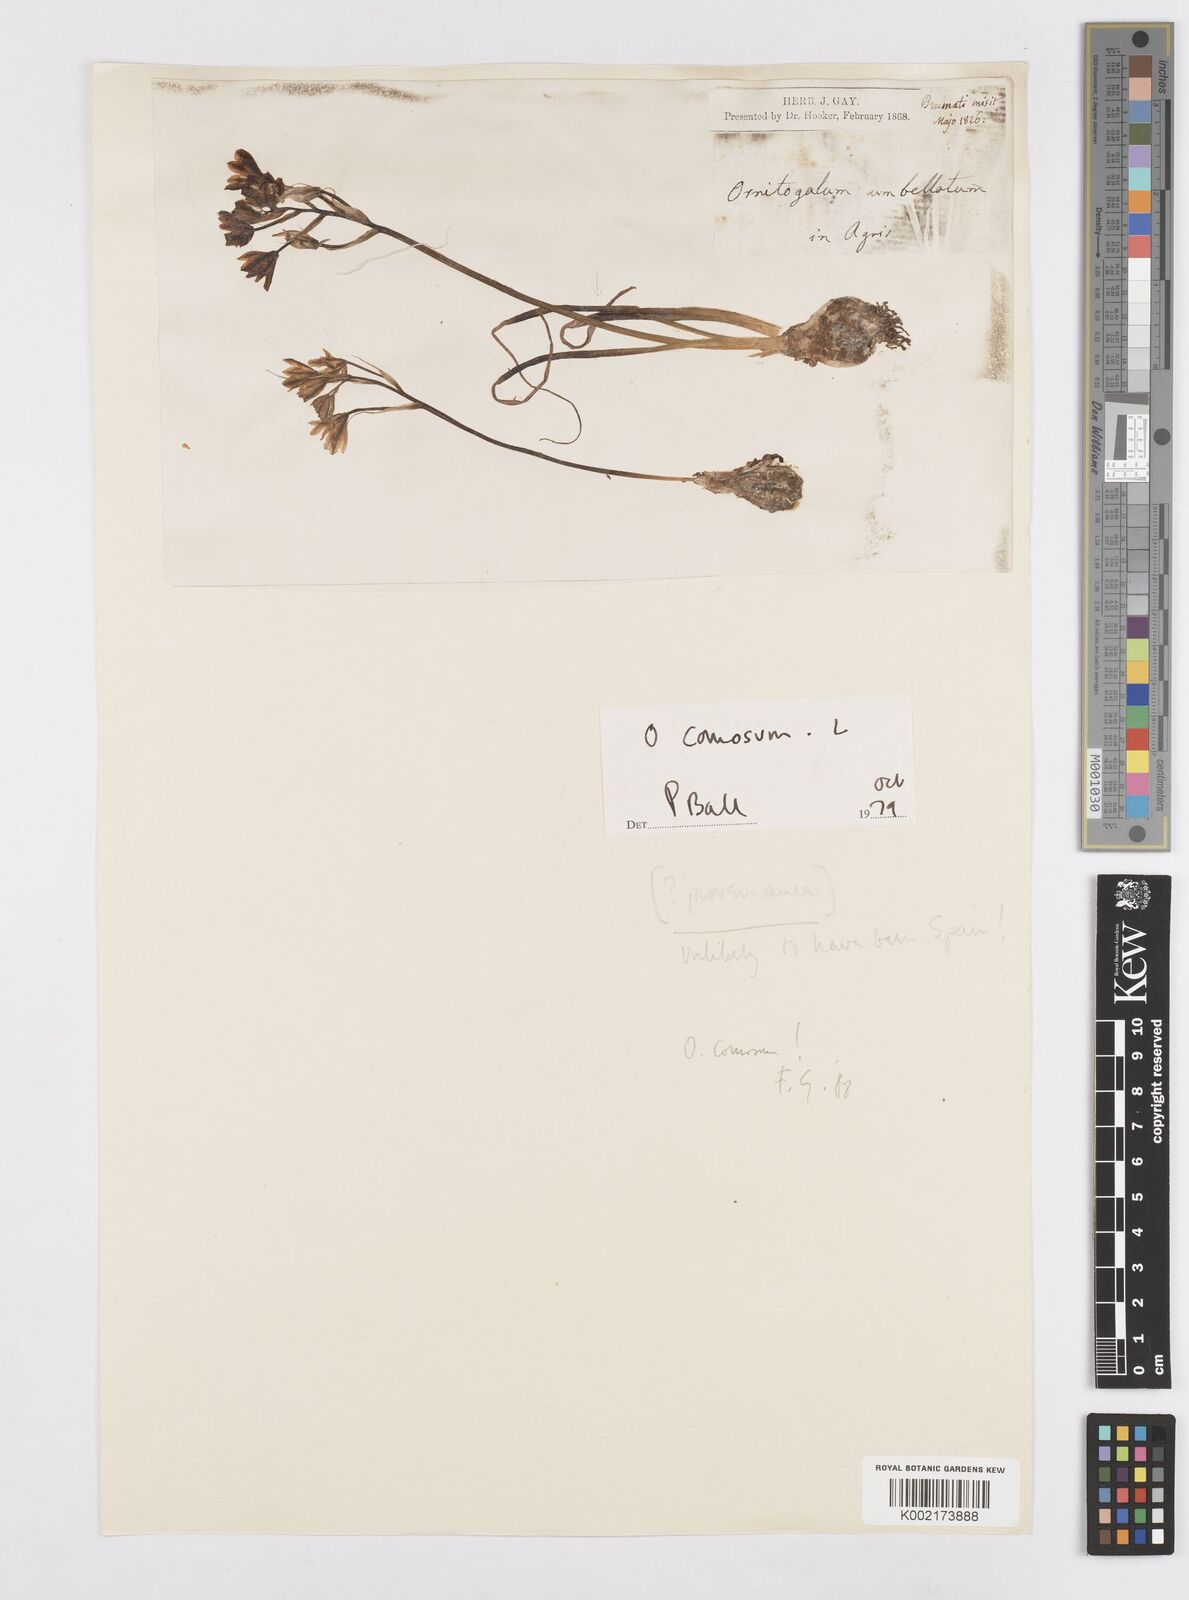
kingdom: Plantae
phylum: Tracheophyta
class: Liliopsida
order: Asparagales
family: Asparagaceae
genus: Ornithogalum
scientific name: Ornithogalum orthophyllum
